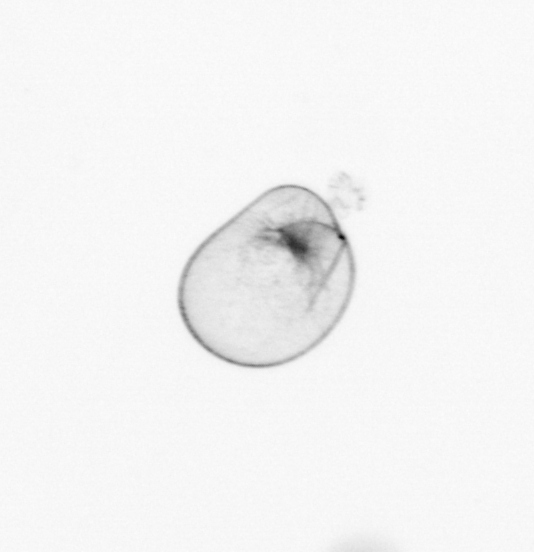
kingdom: Chromista
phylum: Myzozoa
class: Dinophyceae
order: Noctilucales
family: Noctilucaceae
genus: Noctiluca
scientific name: Noctiluca scintillans
